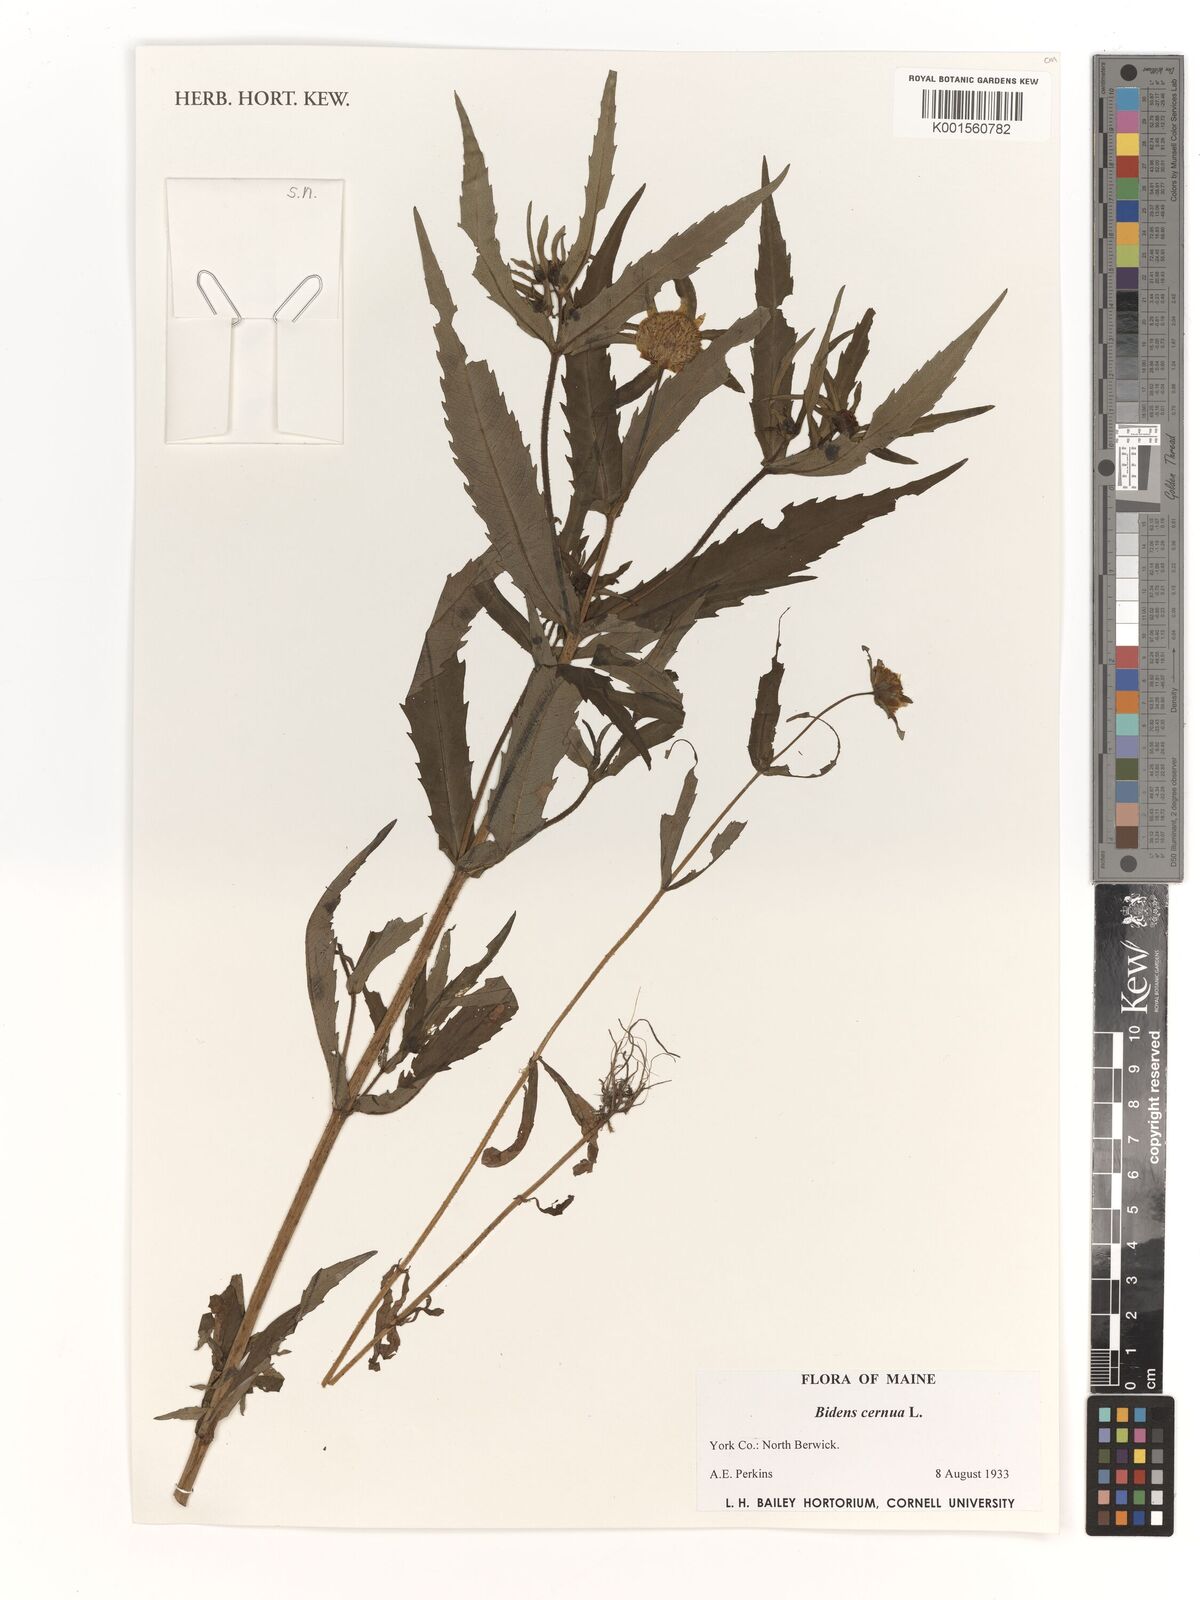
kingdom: Plantae
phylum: Tracheophyta
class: Magnoliopsida
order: Asterales
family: Asteraceae
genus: Bidens
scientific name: Bidens cernua
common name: Nodding bur-marigold
